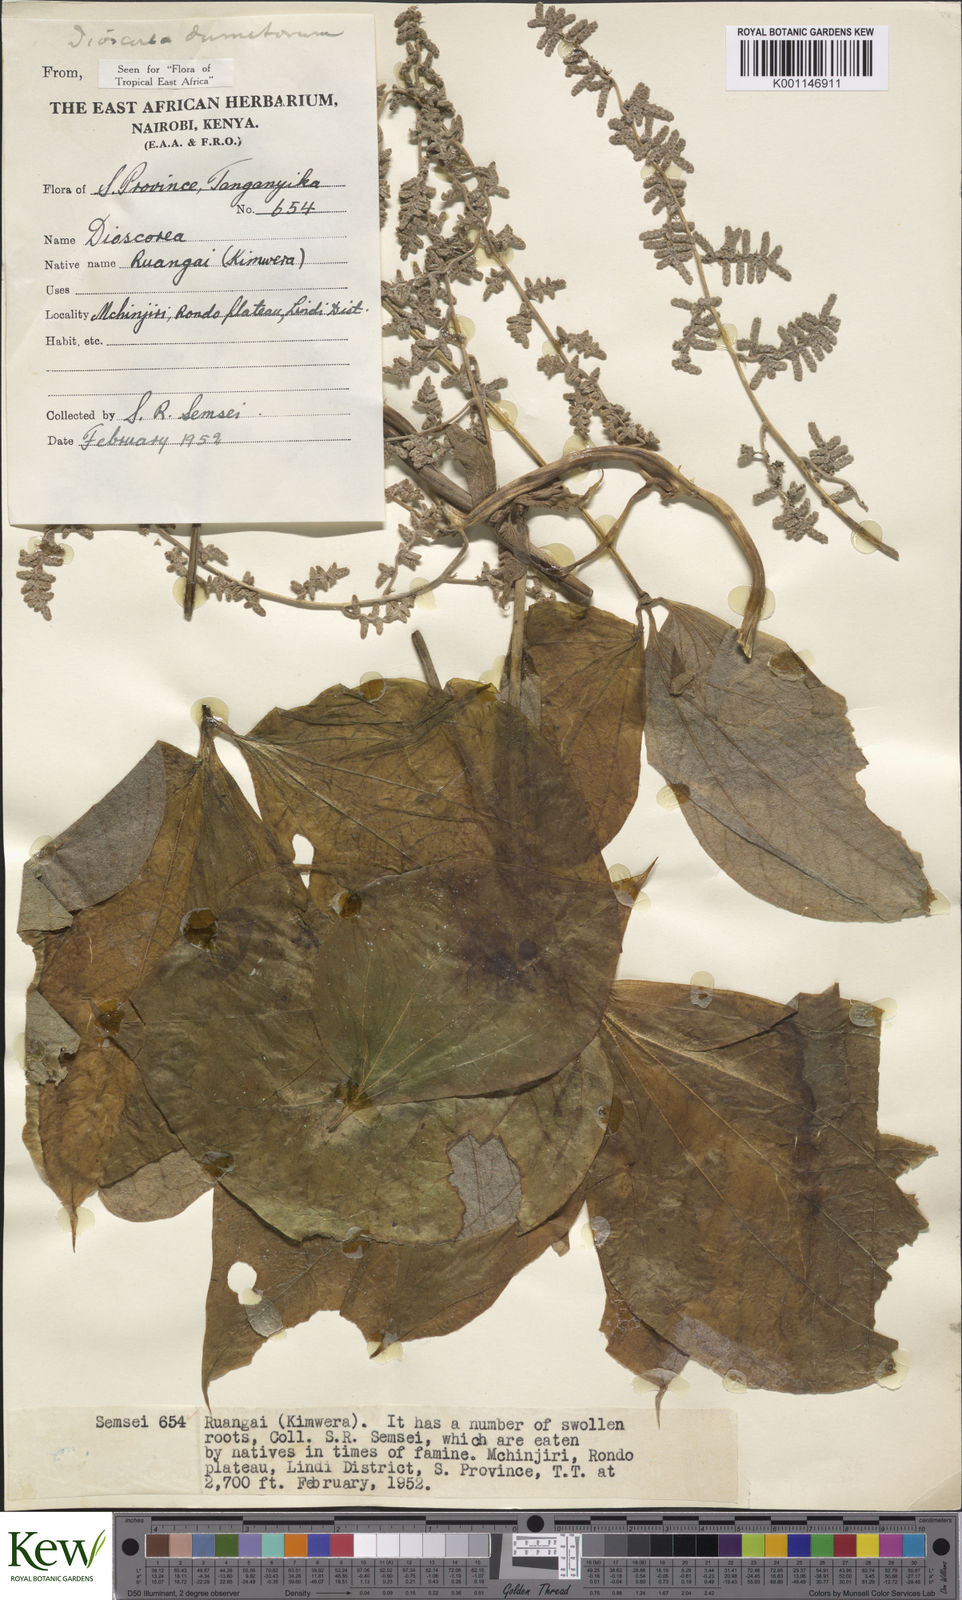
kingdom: Plantae
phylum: Tracheophyta
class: Liliopsida
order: Dioscoreales
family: Dioscoreaceae
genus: Dioscorea
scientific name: Dioscorea dumetorum
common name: African bitter yam
